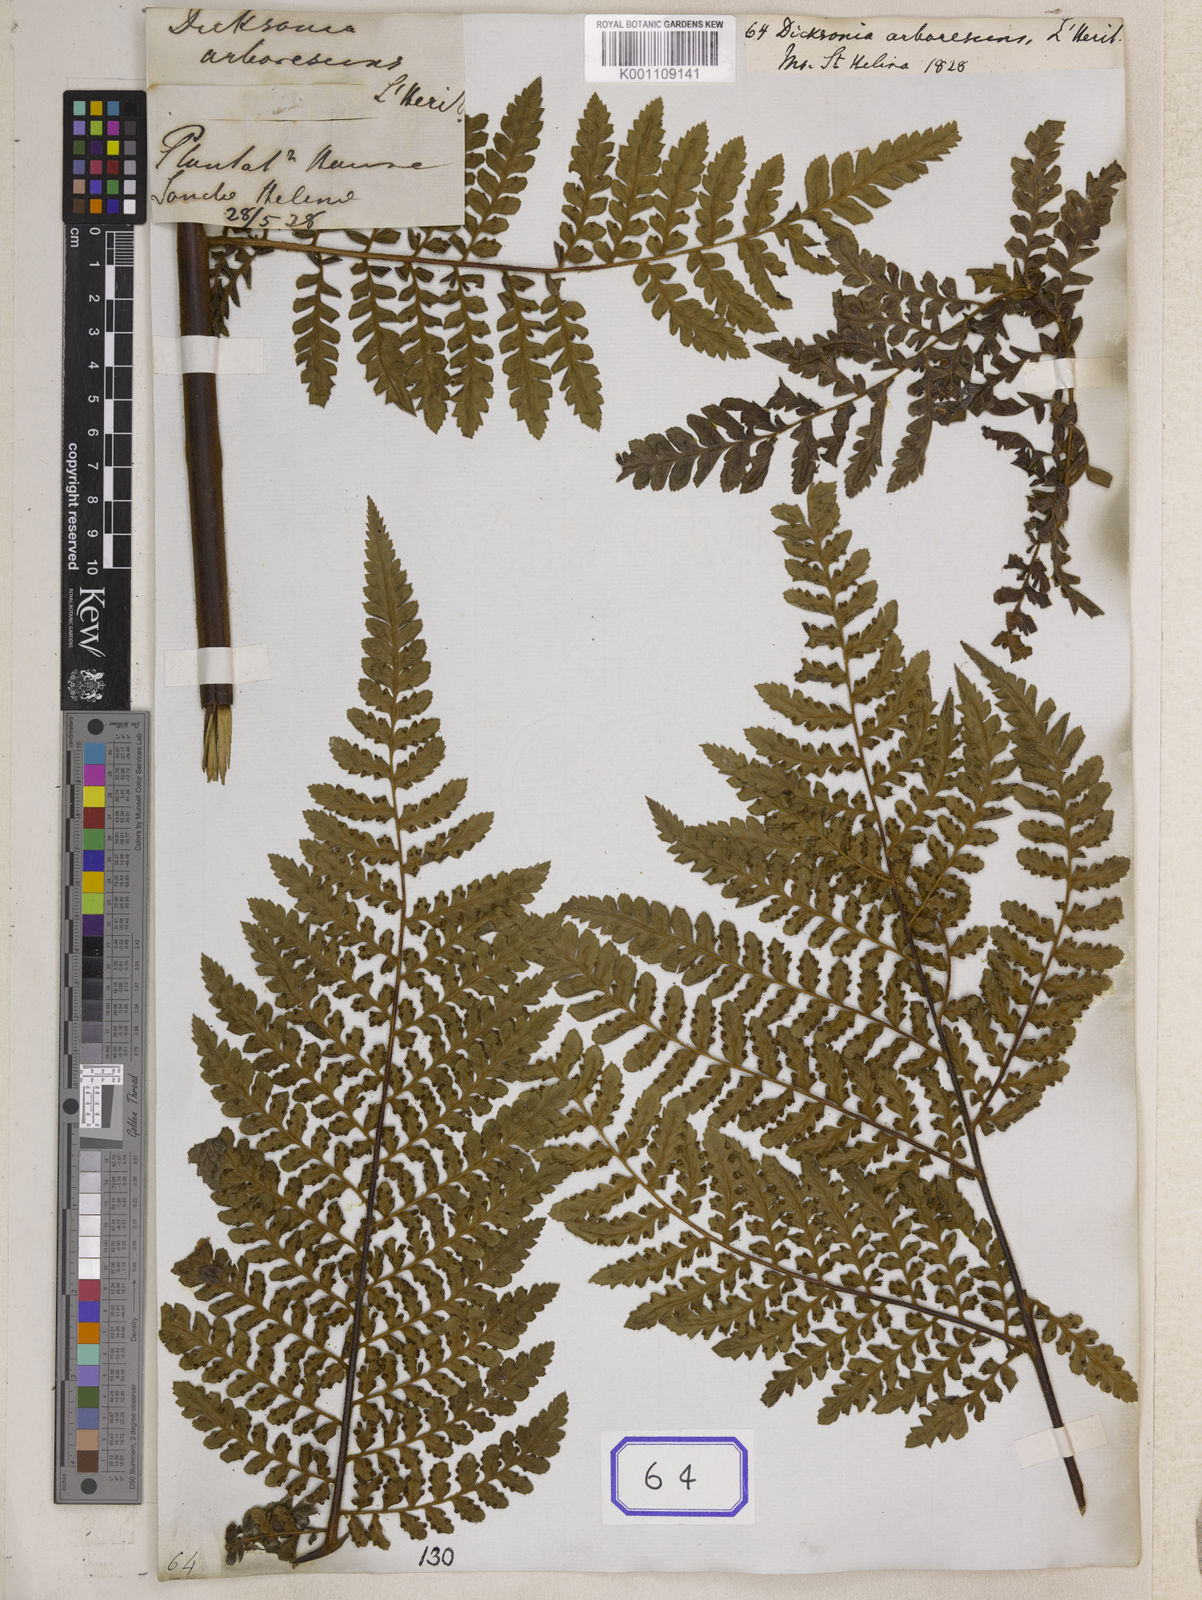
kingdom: Plantae
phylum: Tracheophyta
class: Polypodiopsida
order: Cyatheales
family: Dicksoniaceae
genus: Dicksonia
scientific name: Dicksonia
